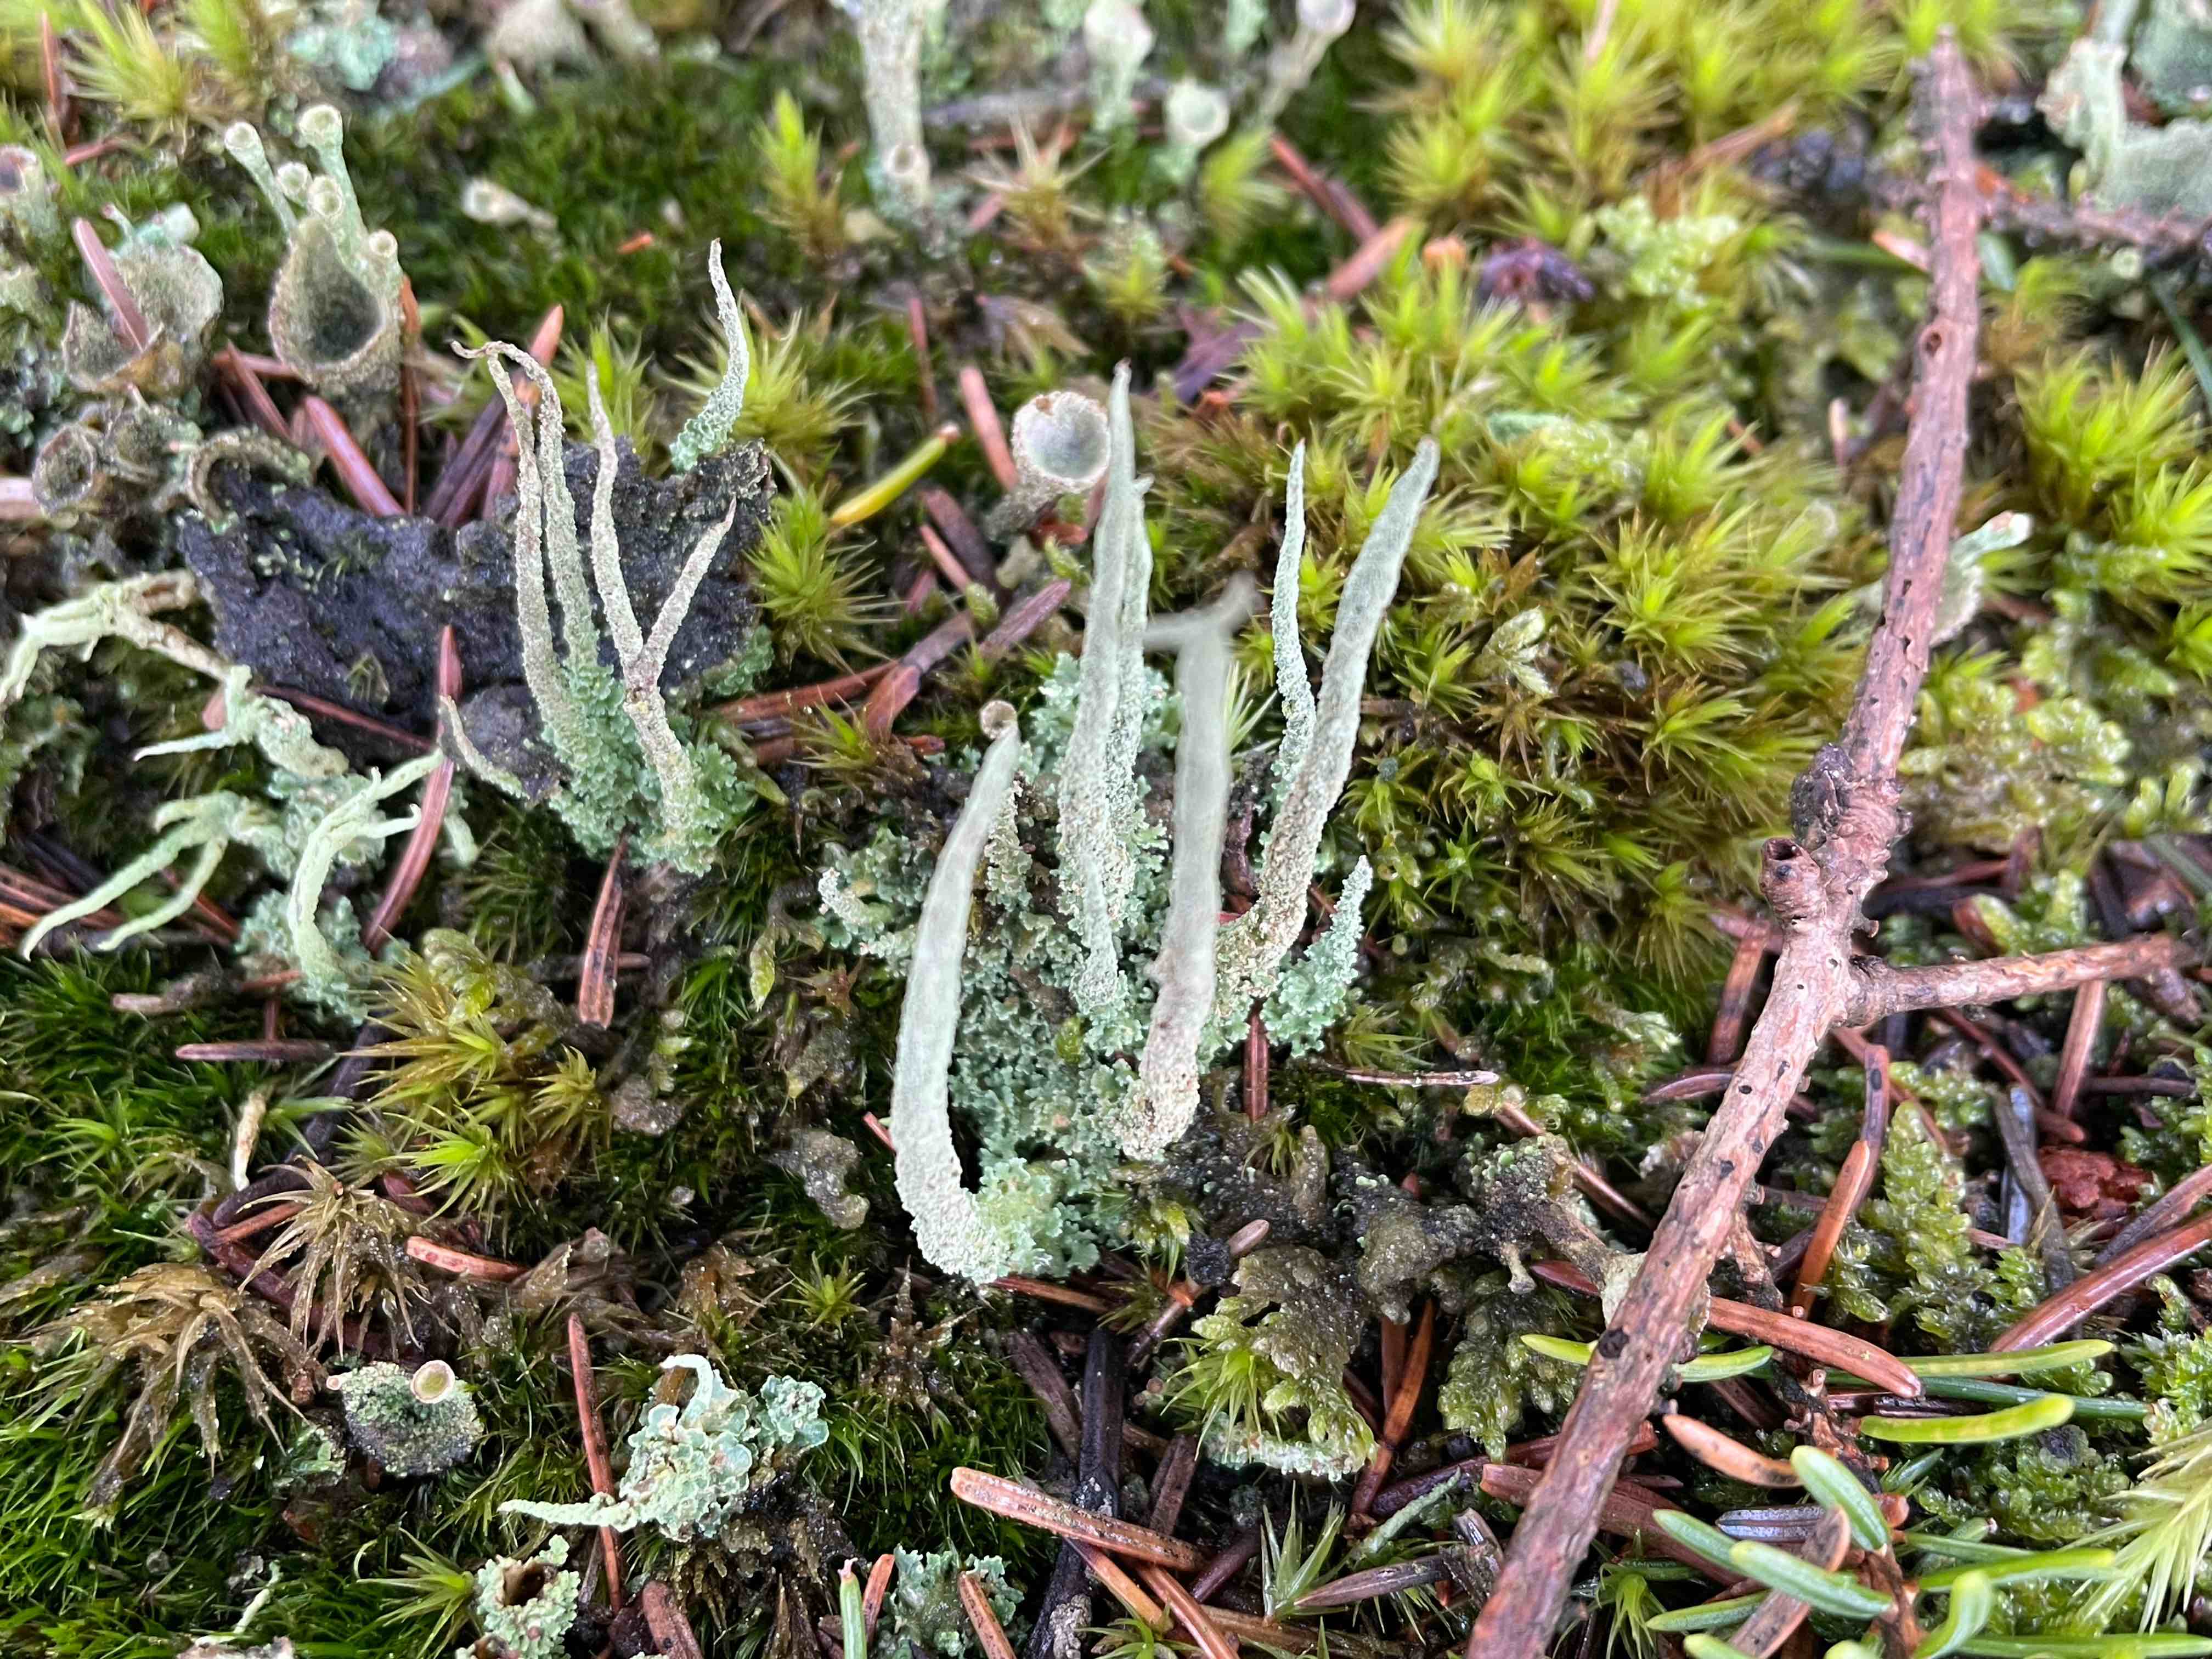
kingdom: Fungi
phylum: Ascomycota
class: Lecanoromycetes
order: Lecanorales
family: Cladoniaceae
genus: Cladonia
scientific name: Cladonia glauca
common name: grågrøn bægerlav
